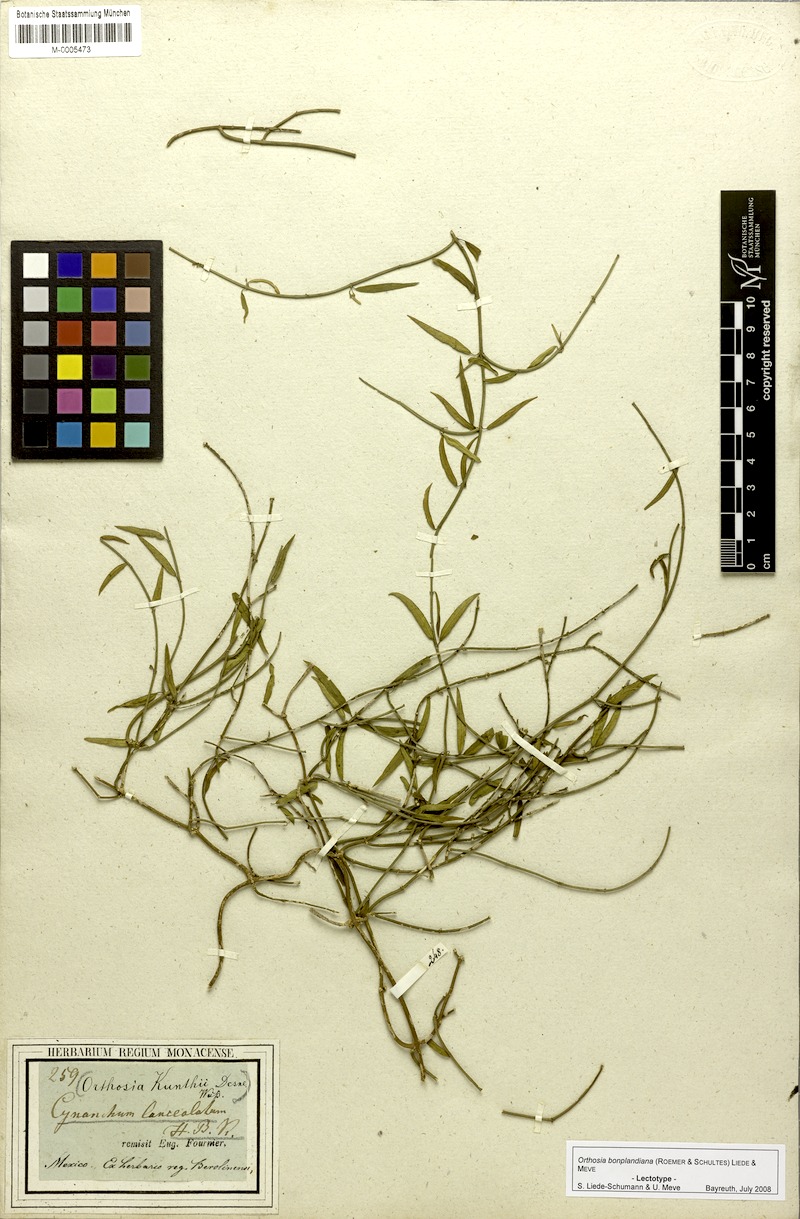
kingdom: Plantae
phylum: Tracheophyta
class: Magnoliopsida
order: Gentianales
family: Apocynaceae
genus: Orthosia
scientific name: Orthosia bonplandiana
